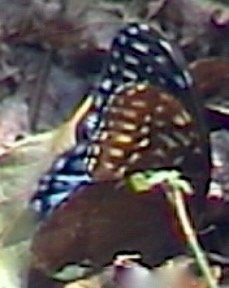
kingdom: Animalia
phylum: Arthropoda
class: Insecta
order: Lepidoptera
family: Nymphalidae
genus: Speyeria
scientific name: Speyeria diana
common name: Diana Fritillary
